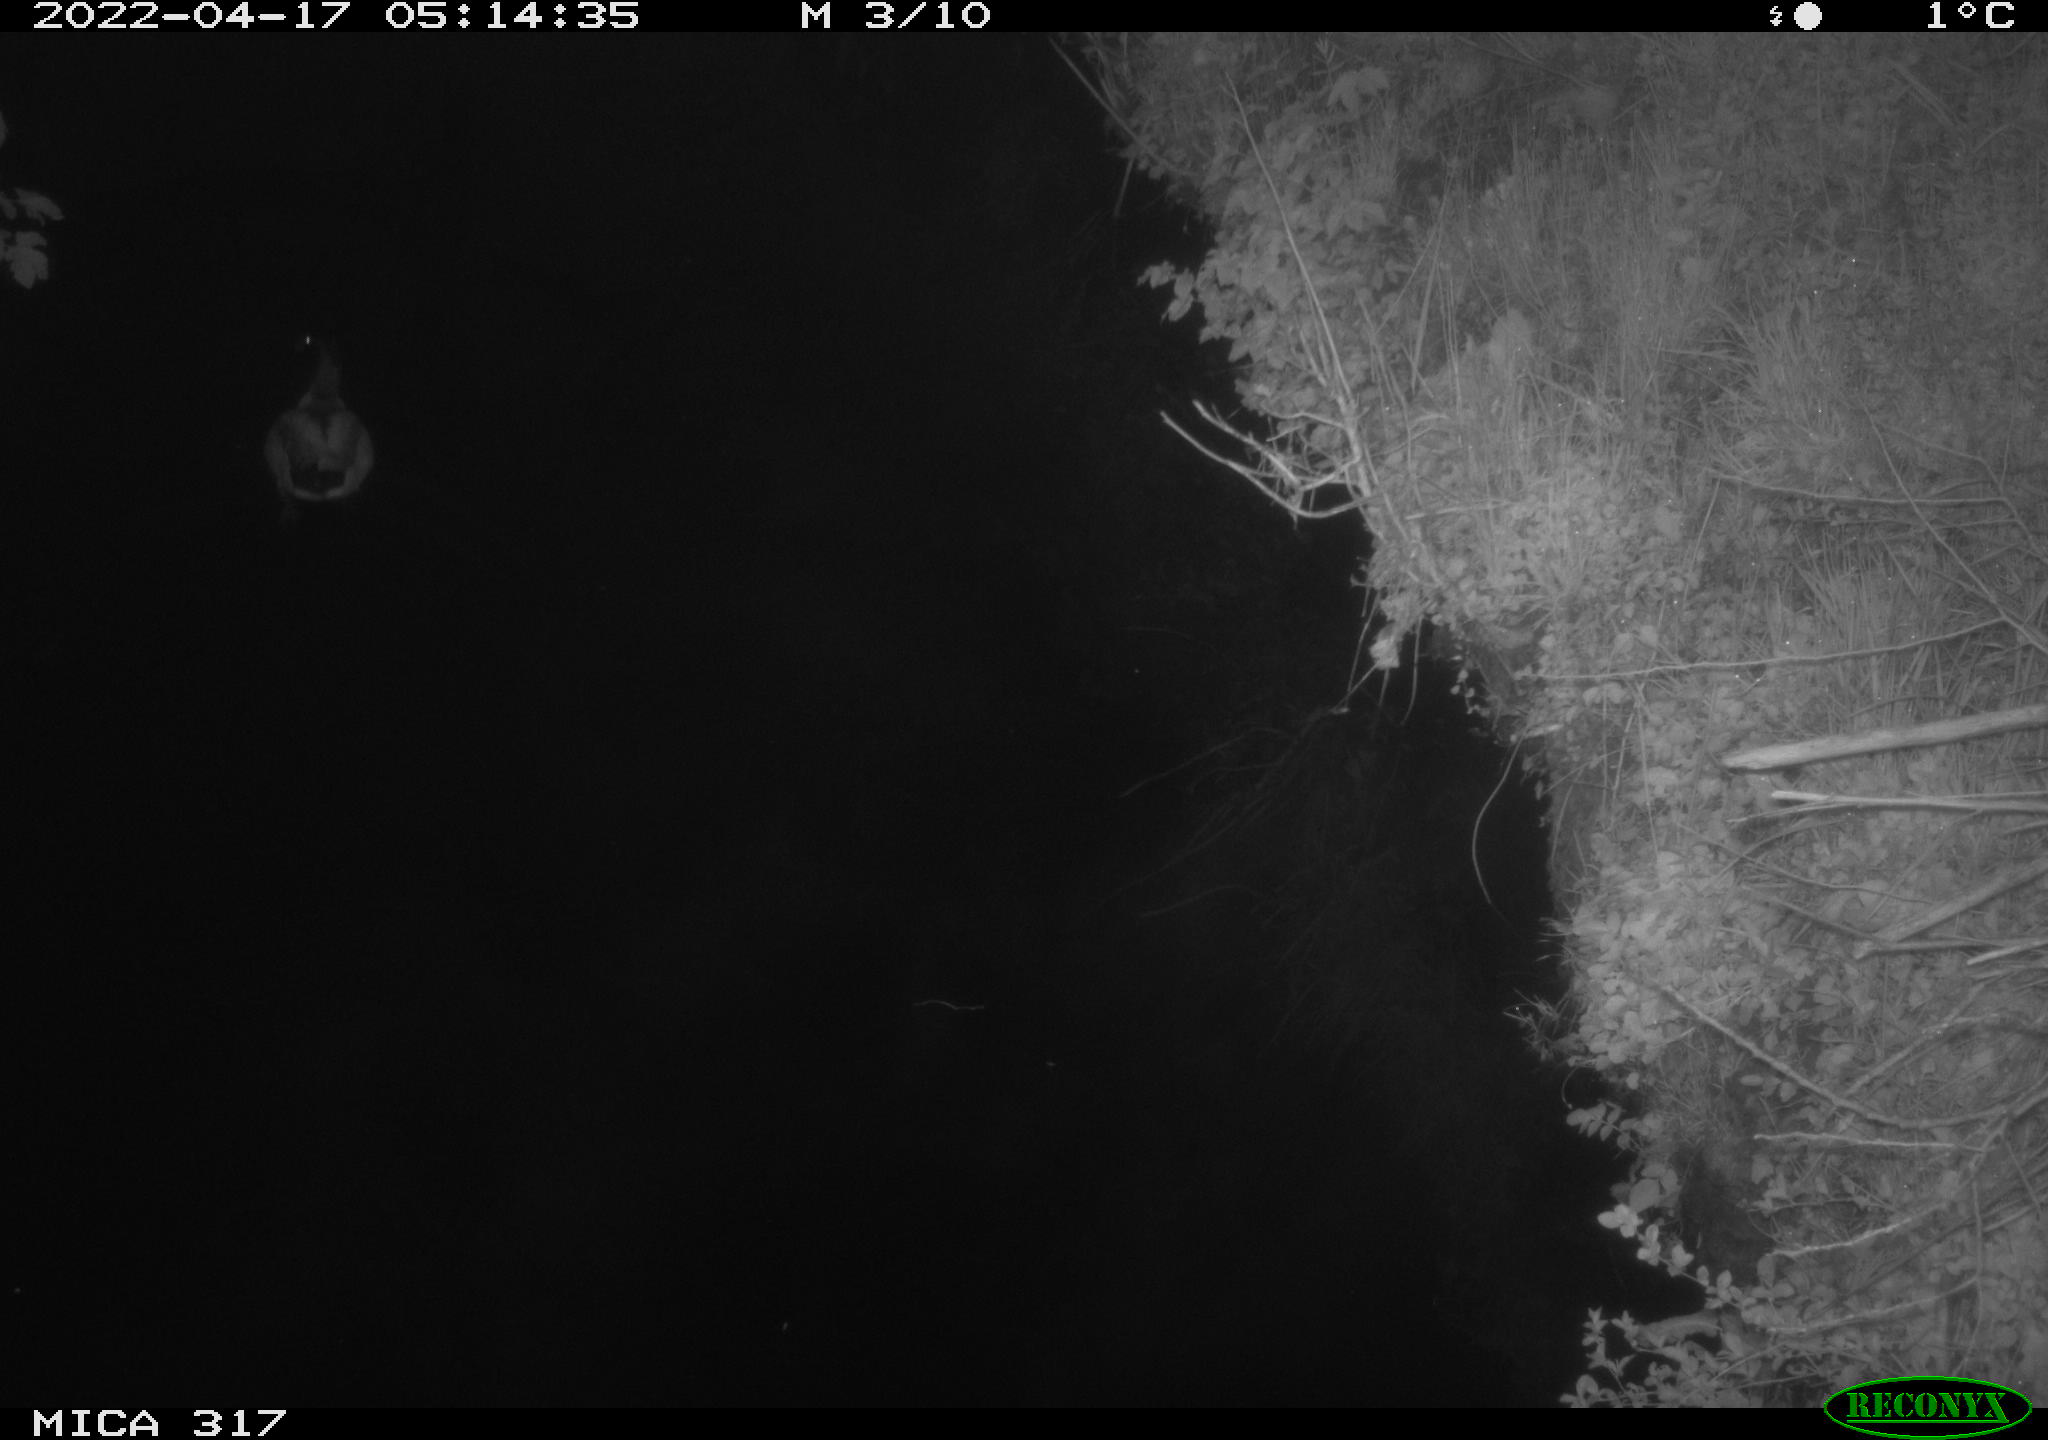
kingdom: Animalia
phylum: Chordata
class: Aves
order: Anseriformes
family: Anatidae
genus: Anas
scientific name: Anas platyrhynchos
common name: Mallard
